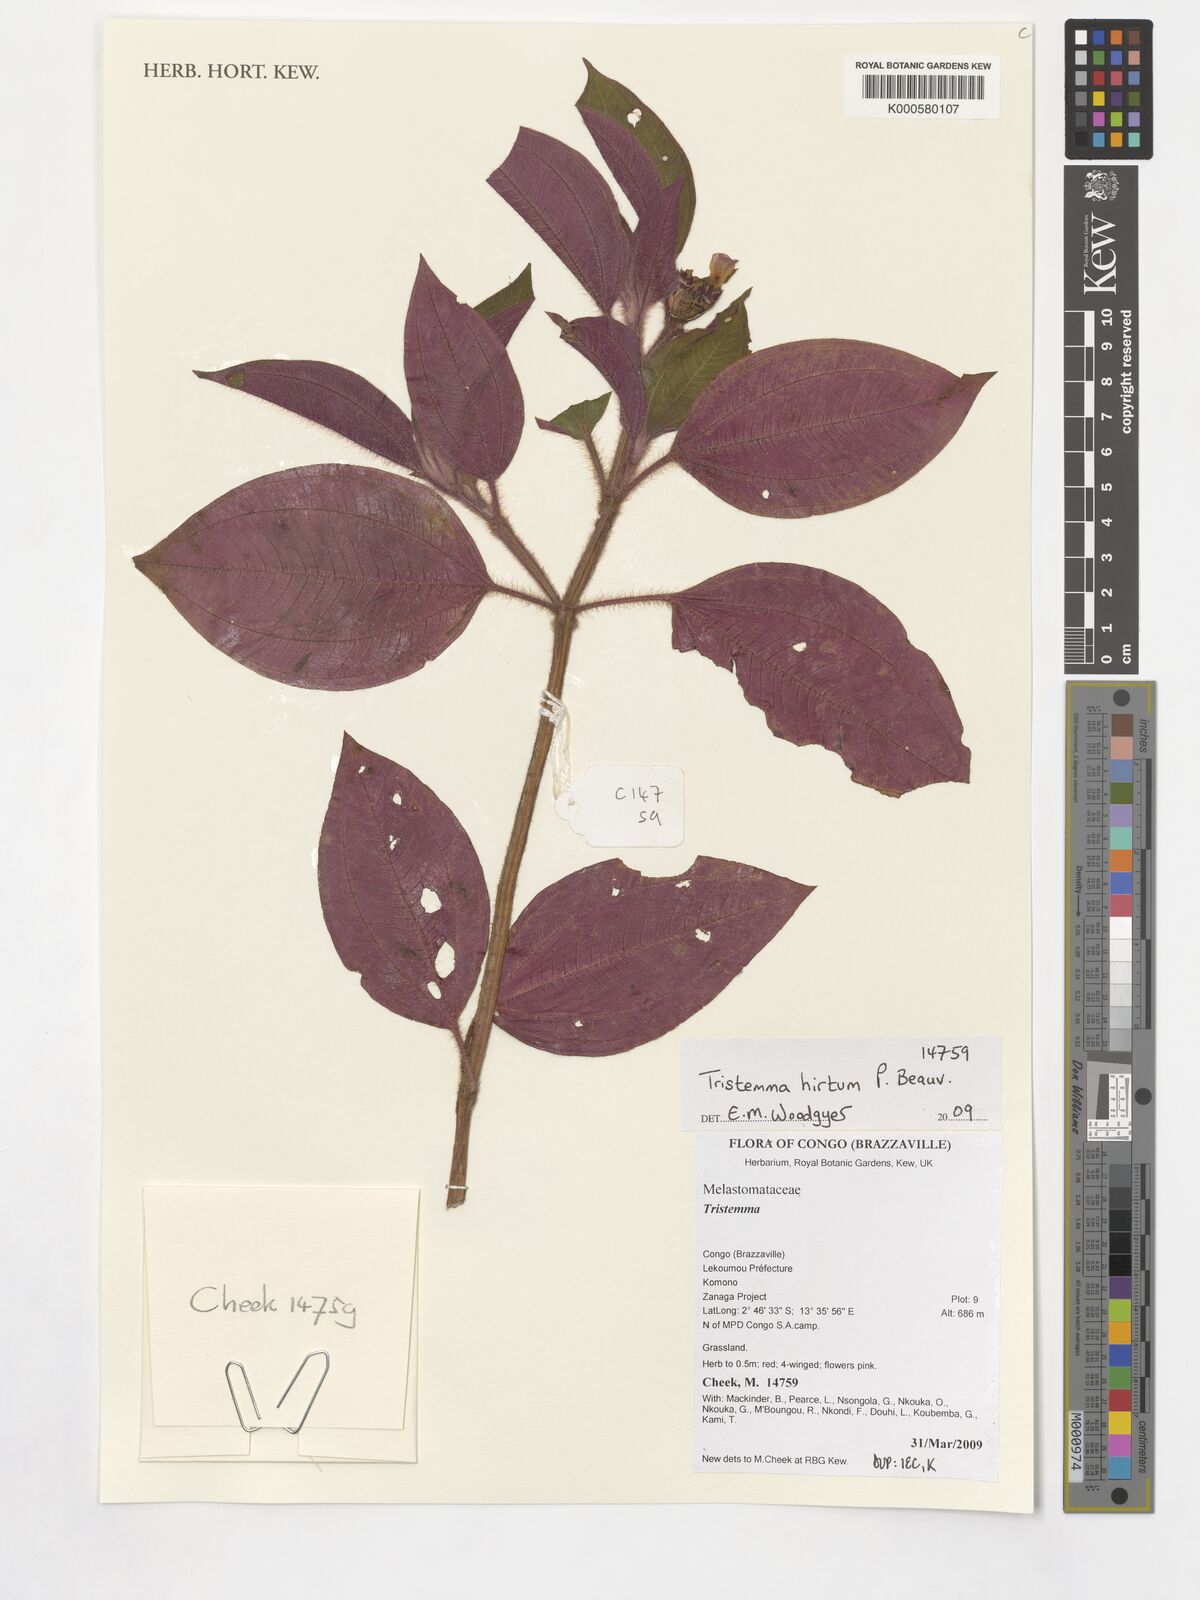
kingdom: Plantae
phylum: Tracheophyta
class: Magnoliopsida
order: Myrtales
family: Melastomataceae
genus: Tristemma
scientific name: Tristemma hirtum
